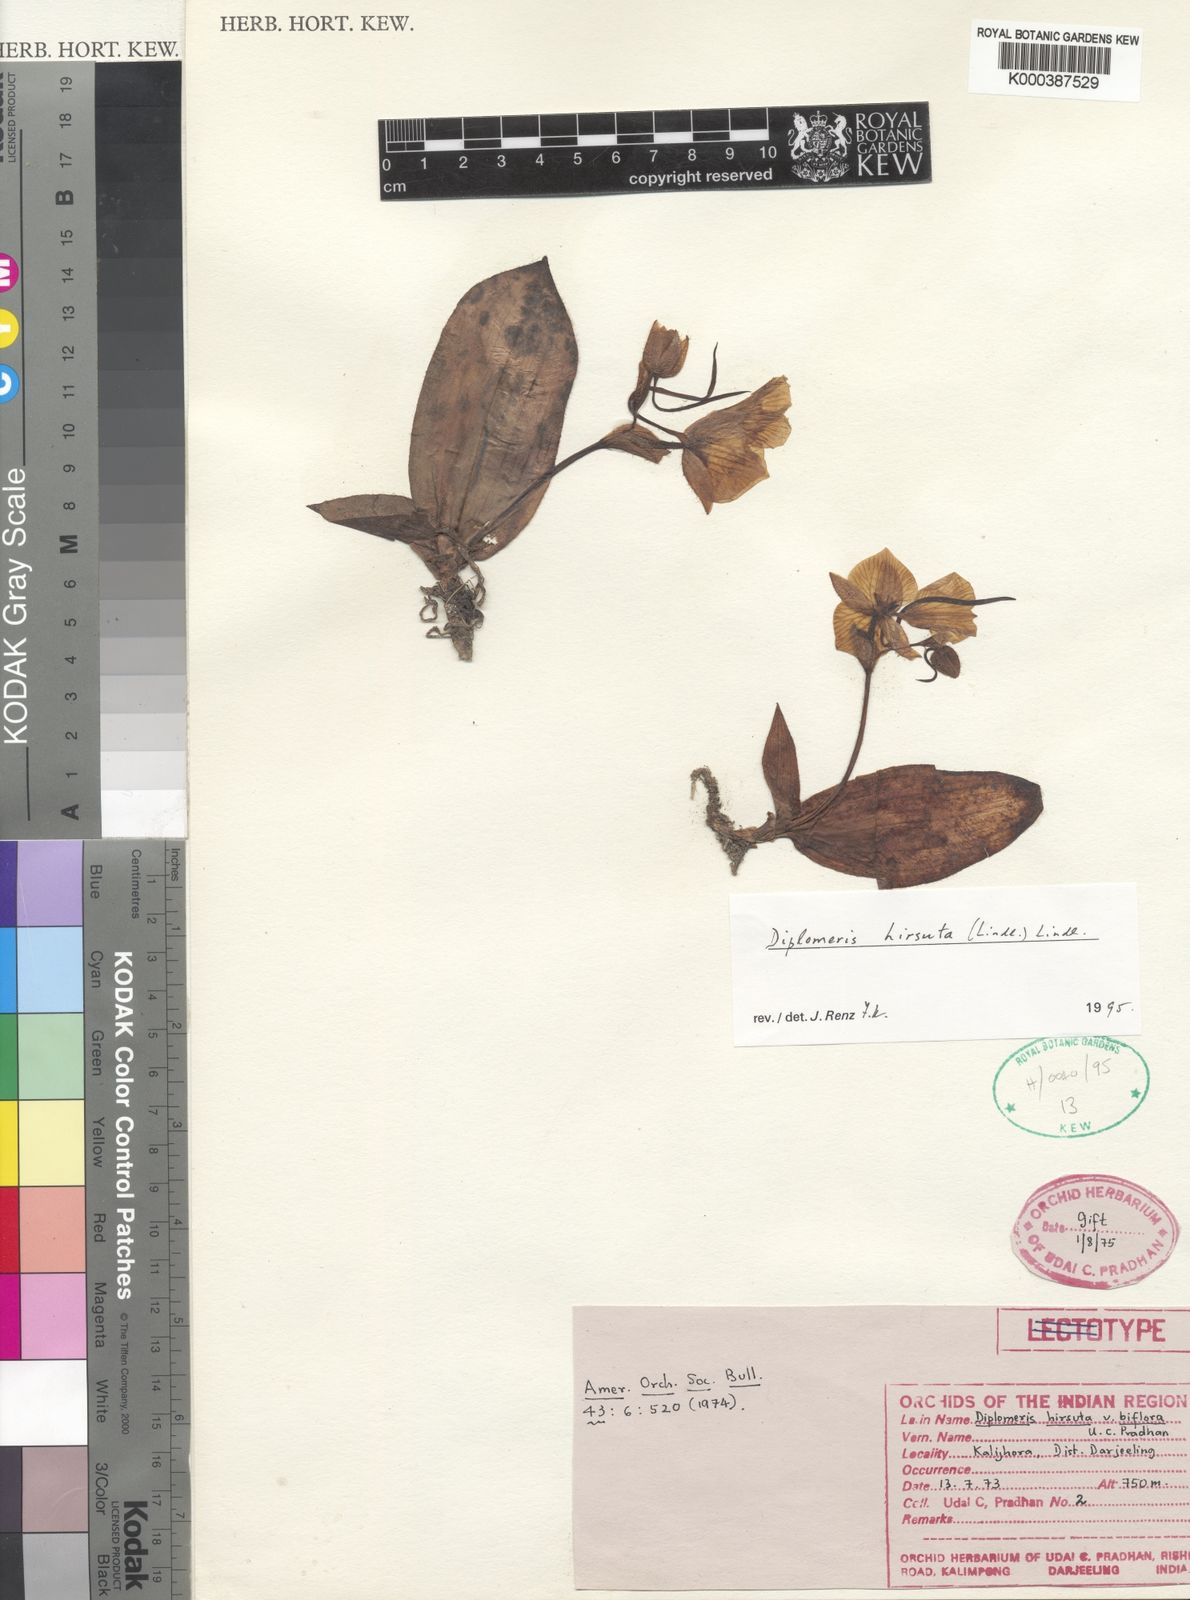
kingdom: Plantae
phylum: Tracheophyta
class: Liliopsida
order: Asparagales
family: Orchidaceae
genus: Diplomeris
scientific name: Diplomeris hirsuta
